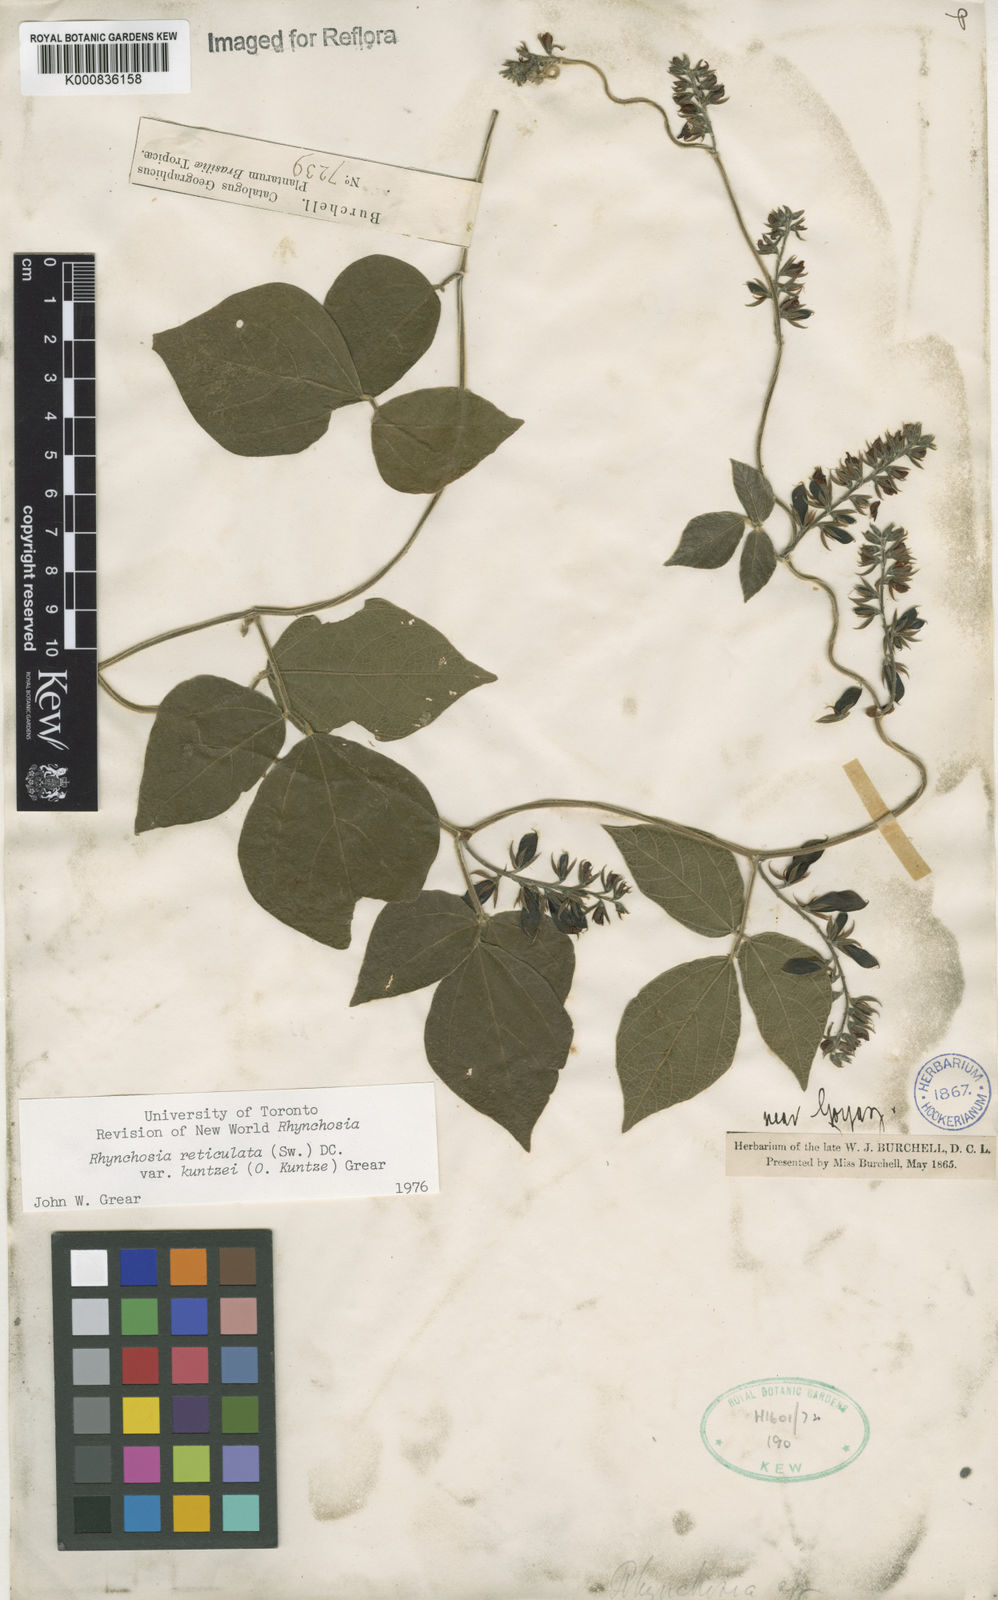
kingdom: Plantae
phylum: Tracheophyta
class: Magnoliopsida
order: Fabales
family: Fabaceae
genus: Rhynchosia
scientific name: Rhynchosia reticulata
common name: Pea withe
